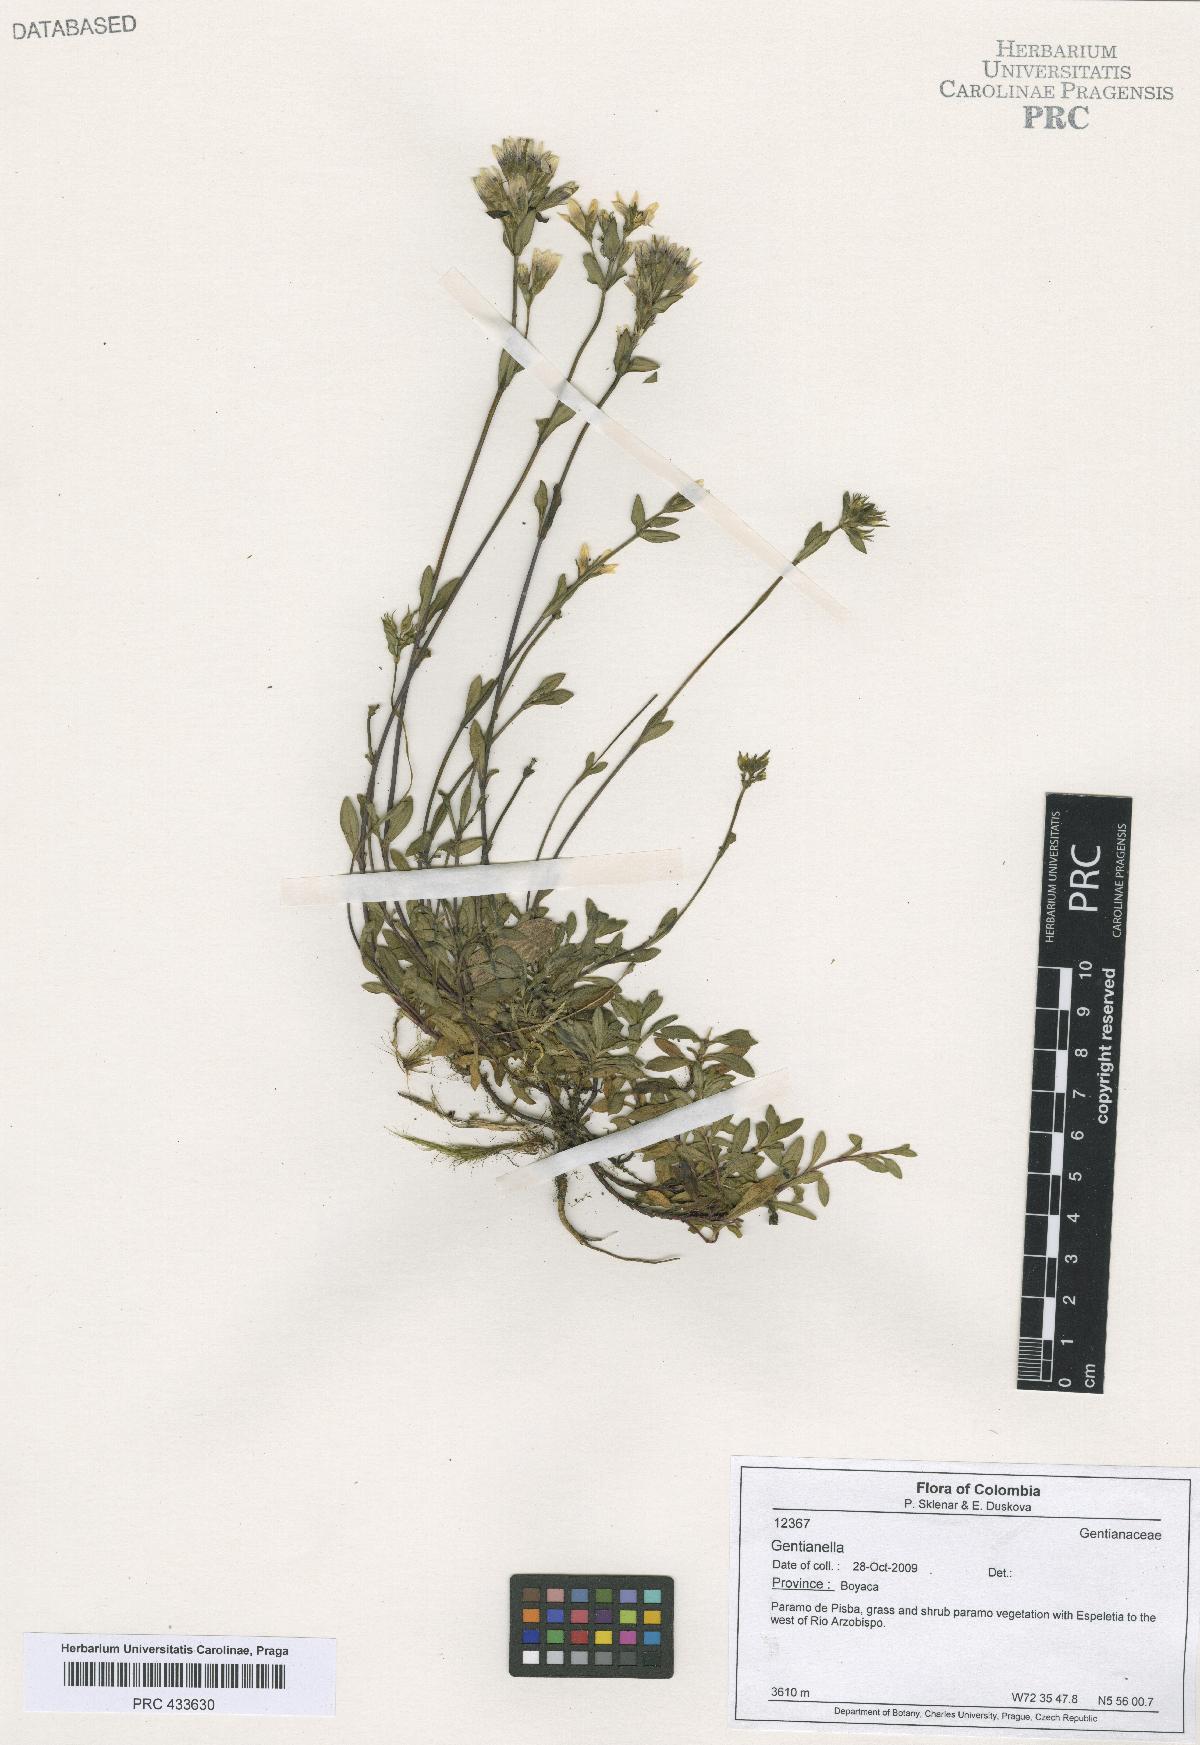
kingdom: Plantae
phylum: Tracheophyta
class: Magnoliopsida
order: Gentianales
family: Gentianaceae
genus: Gentianella
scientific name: Gentianella
